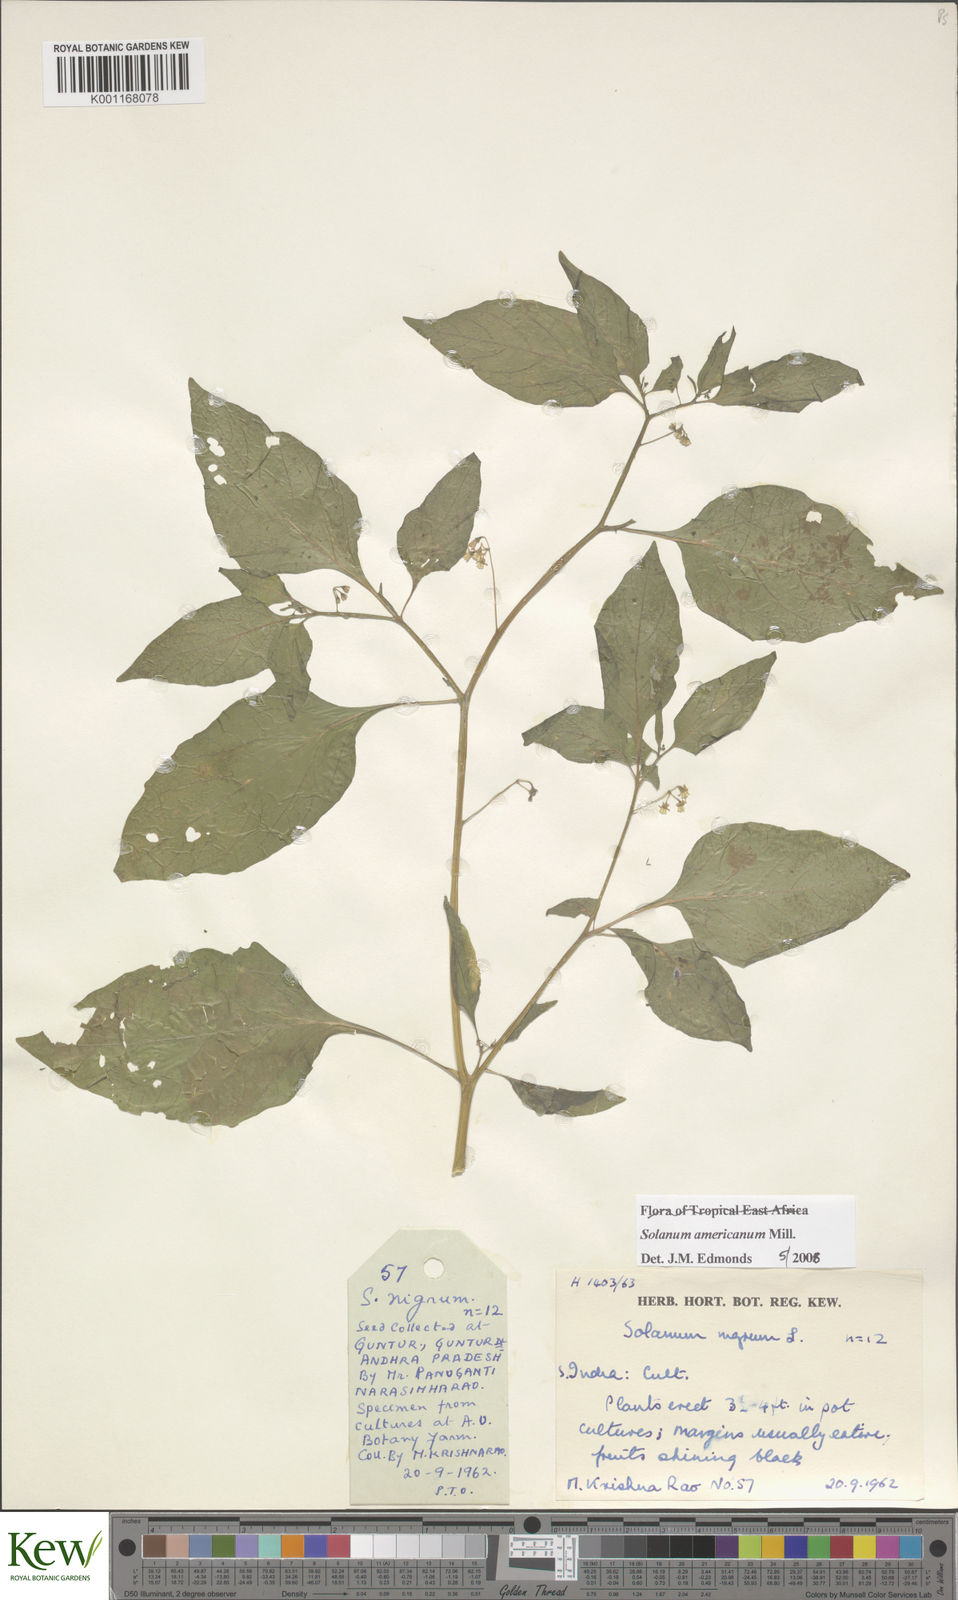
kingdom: Plantae
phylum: Tracheophyta
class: Magnoliopsida
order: Solanales
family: Solanaceae
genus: Solanum
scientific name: Solanum americanum
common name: American black nightshade
